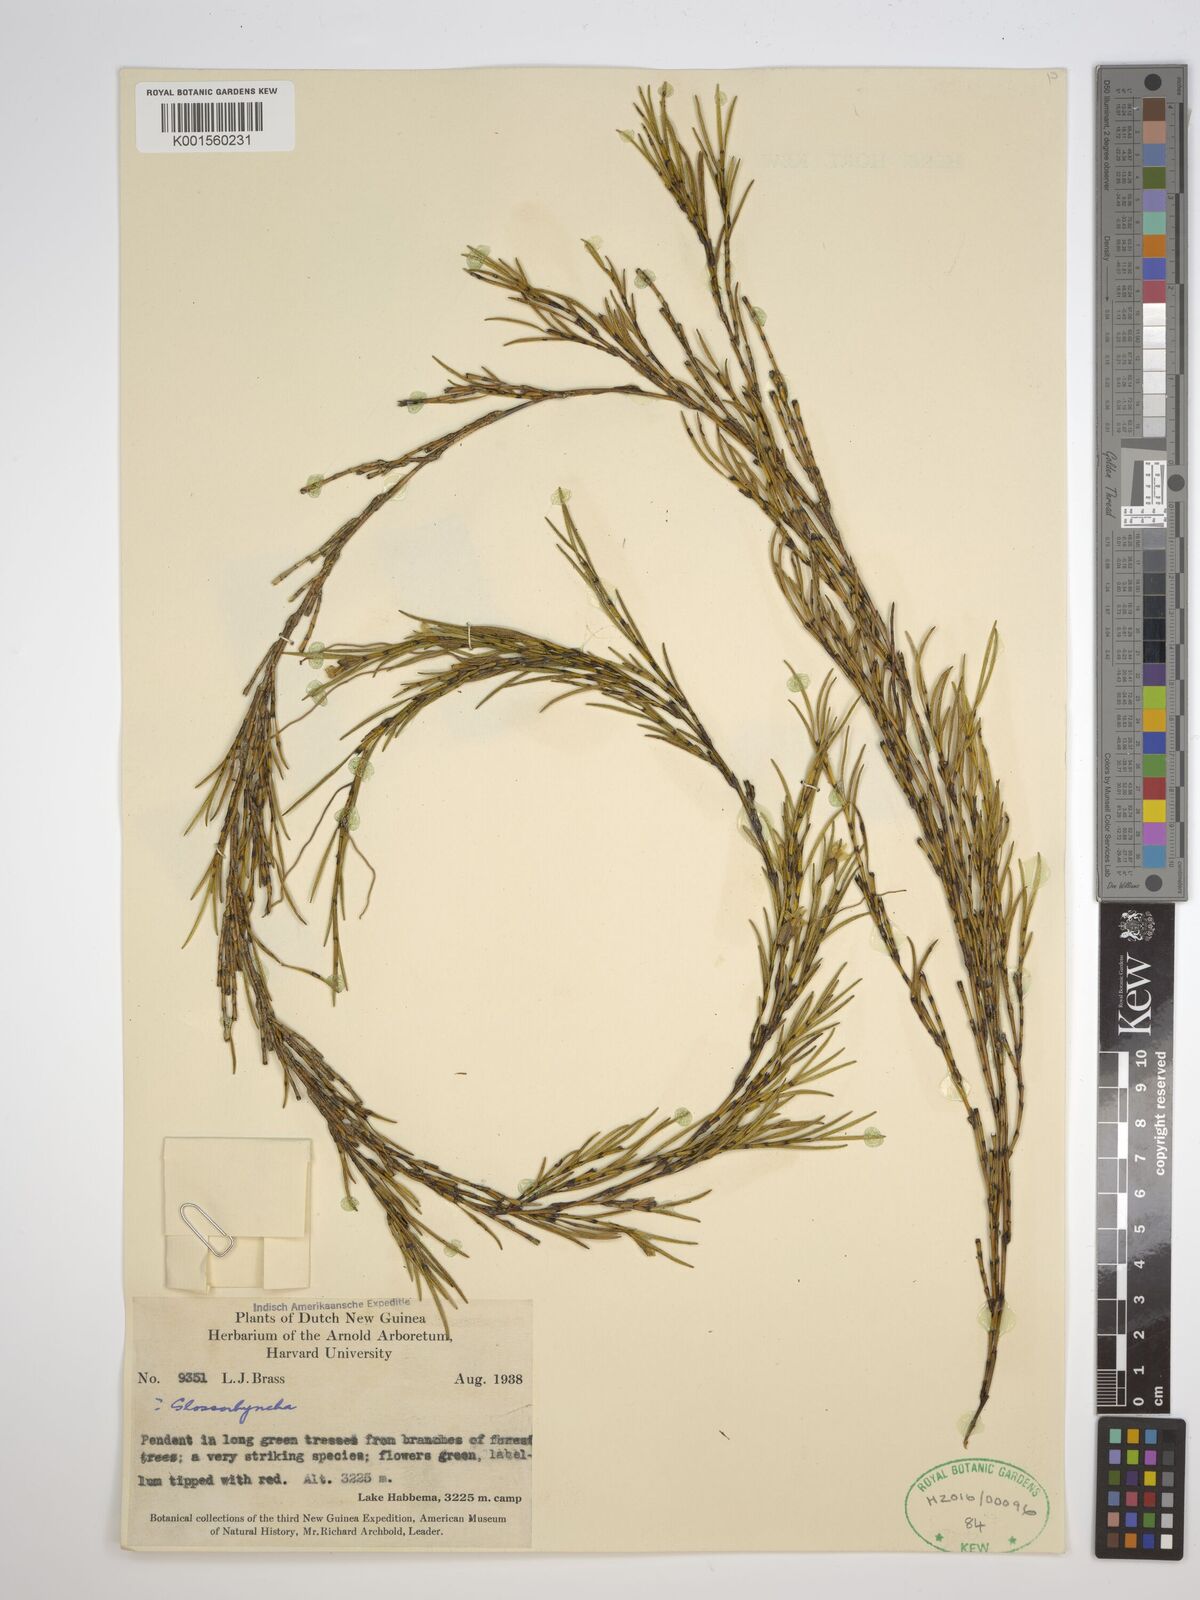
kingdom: Plantae
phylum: Tracheophyta
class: Liliopsida
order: Asparagales
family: Orchidaceae
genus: Glomera
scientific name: Glomera
